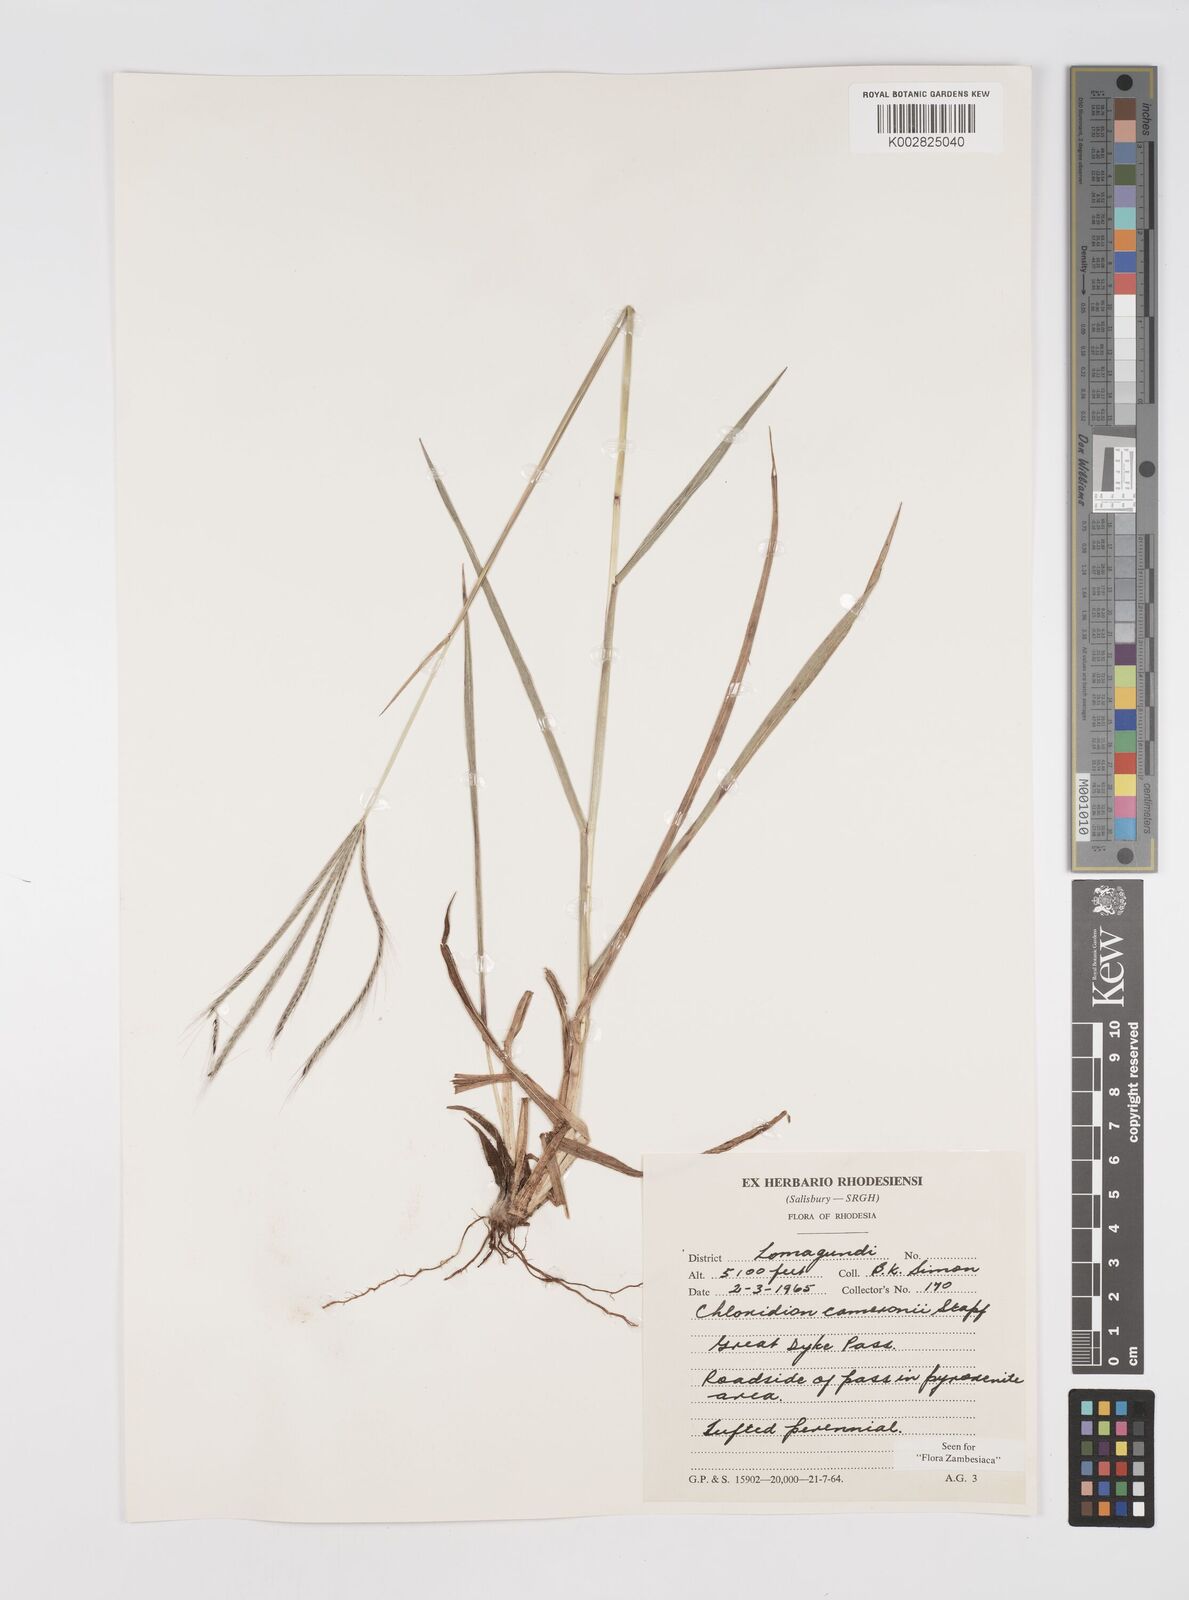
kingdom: Plantae
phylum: Tracheophyta
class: Liliopsida
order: Poales
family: Poaceae
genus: Stereochlaena
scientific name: Stereochlaena cameronii
